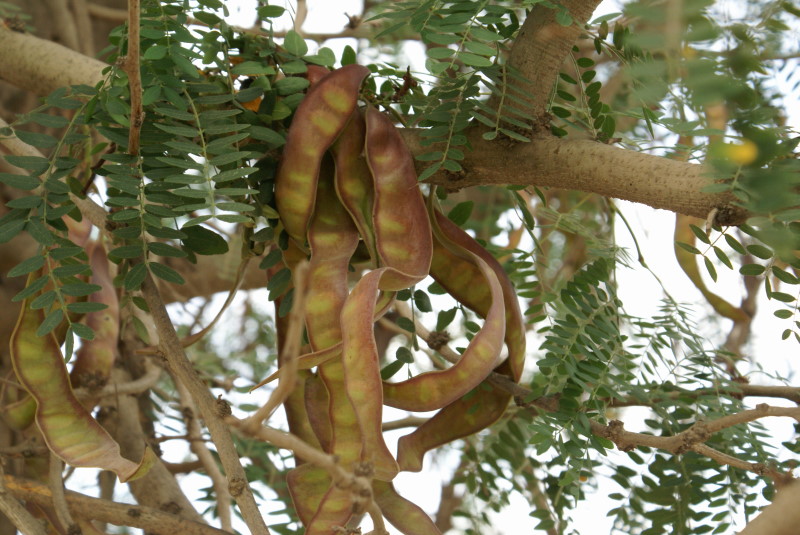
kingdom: Plantae
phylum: Tracheophyta
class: Magnoliopsida
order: Fabales
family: Fabaceae
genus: Robinia
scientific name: Robinia pseudoacacia
